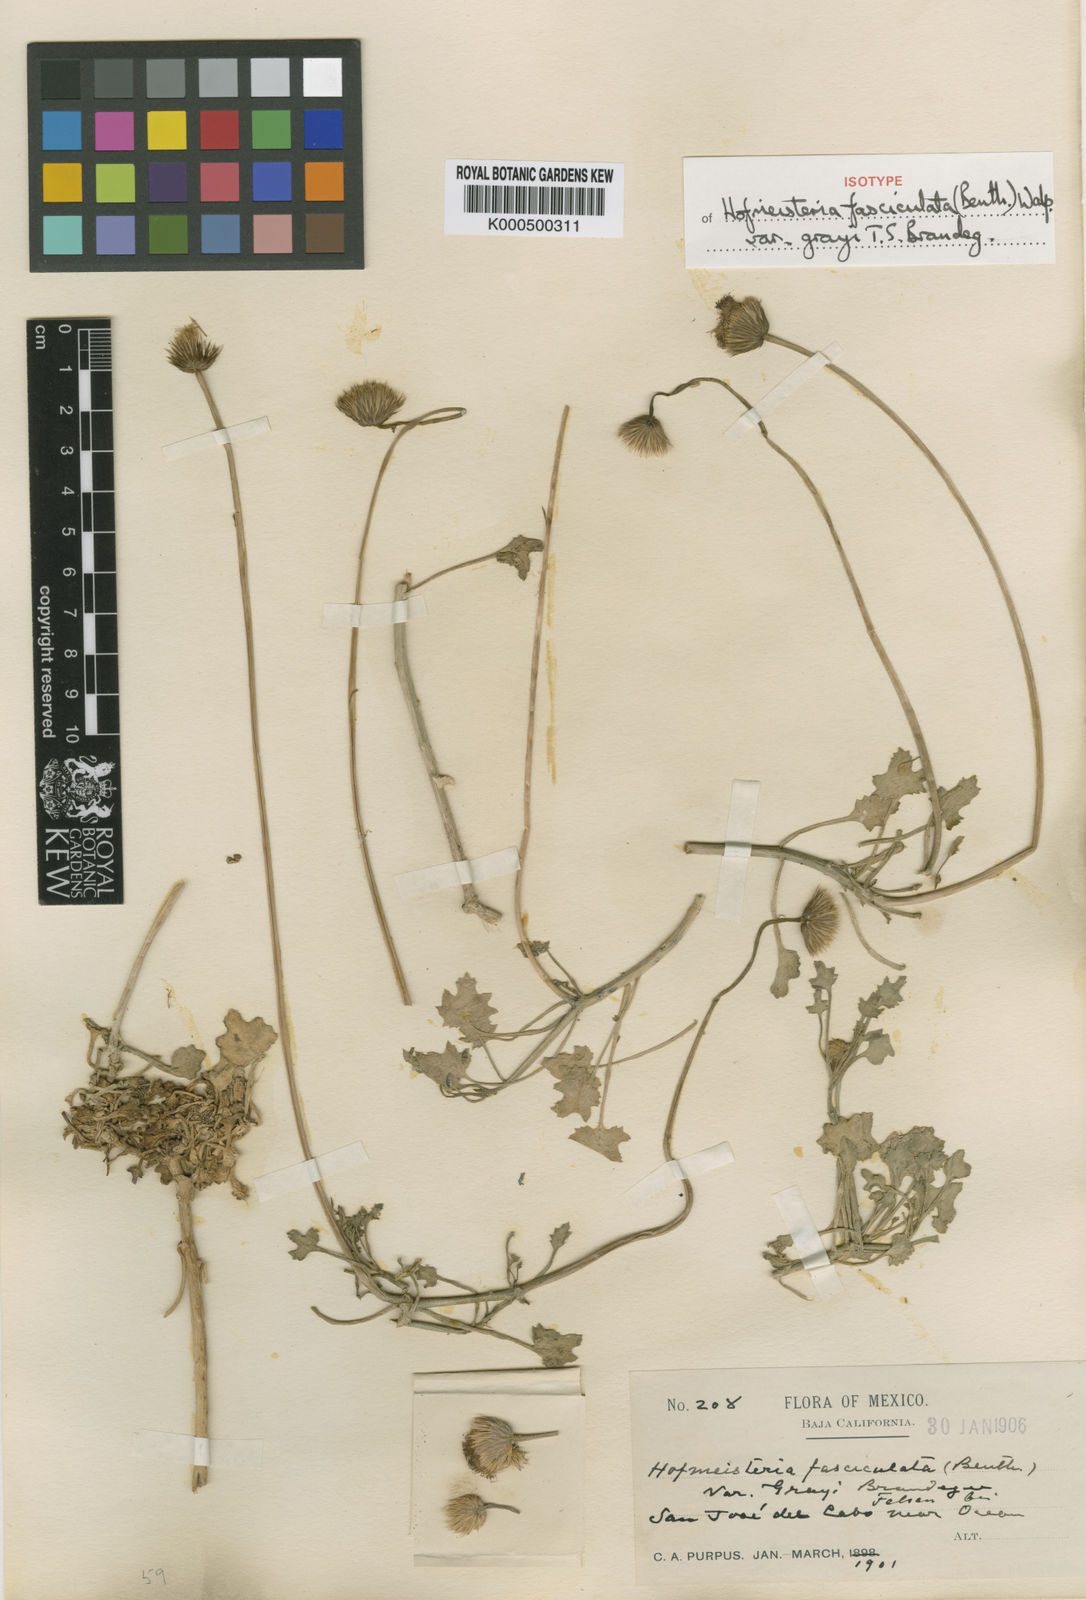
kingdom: Plantae
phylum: Tracheophyta
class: Magnoliopsida
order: Asterales
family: Asteraceae
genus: Hofmeisteria
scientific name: Hofmeisteria fasciculata
